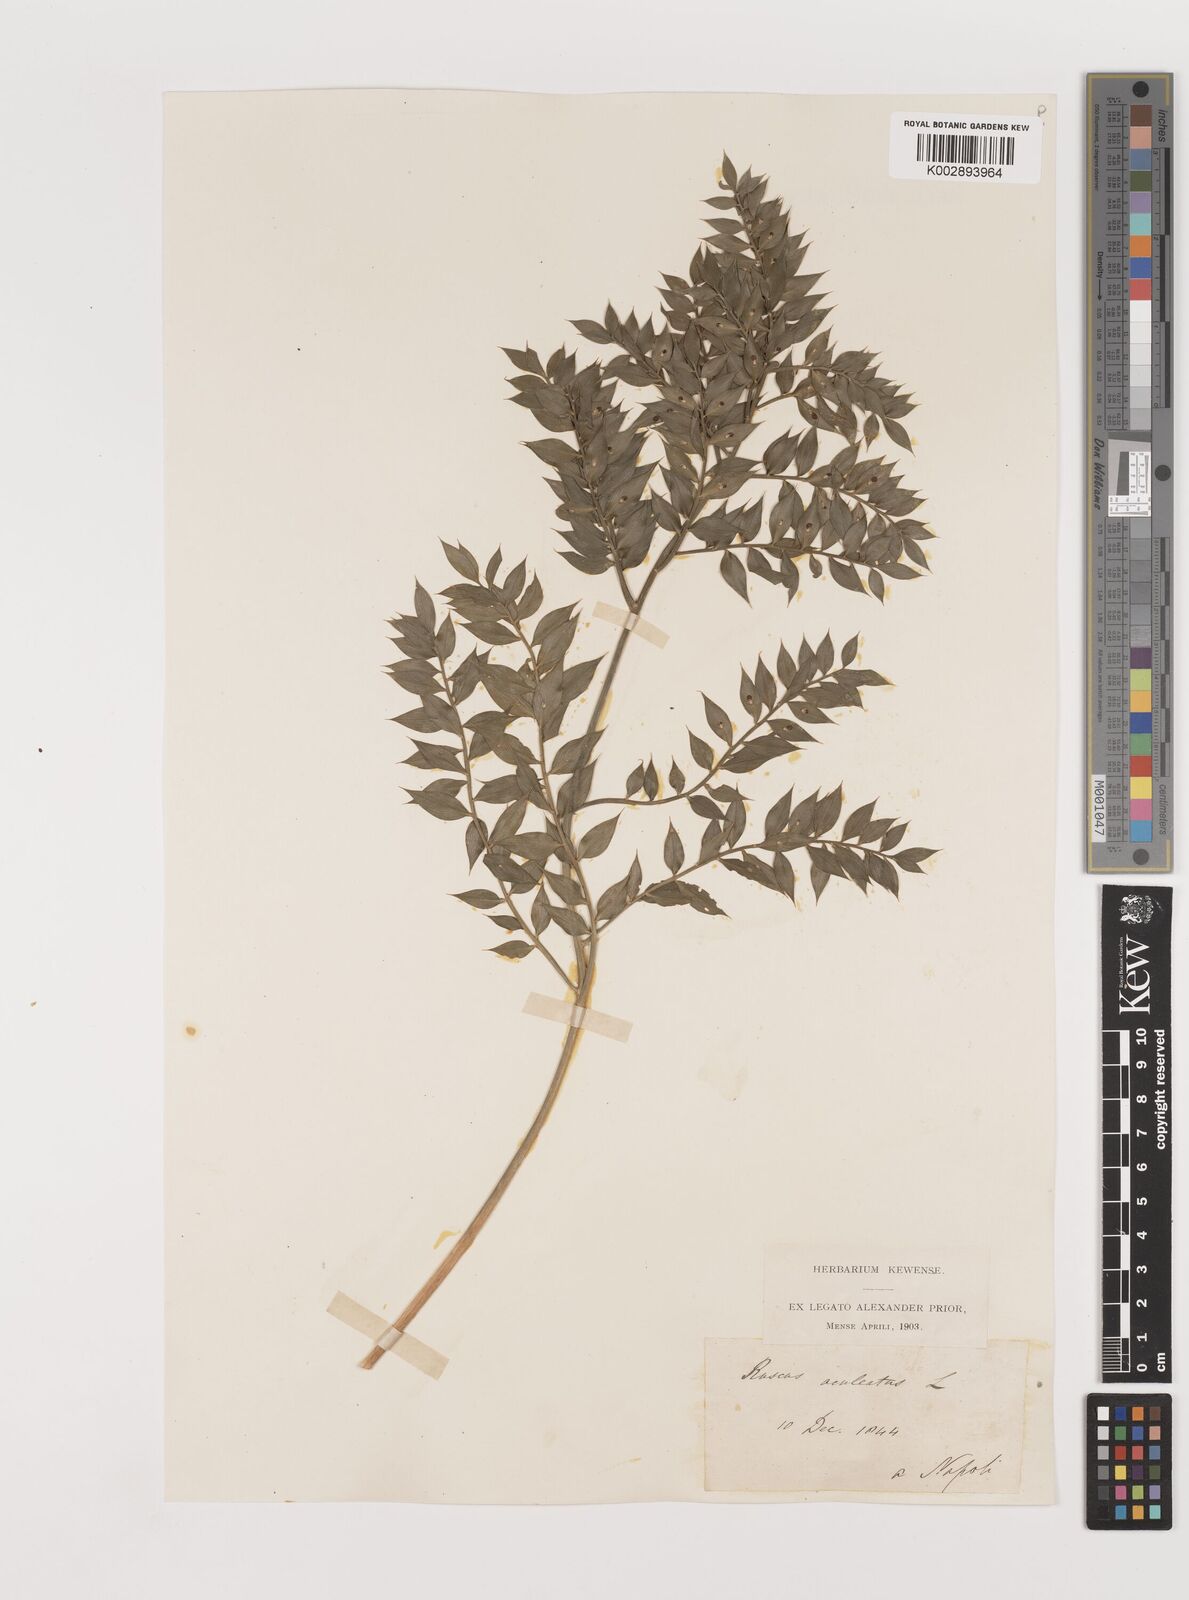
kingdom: Plantae
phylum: Tracheophyta
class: Liliopsida
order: Asparagales
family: Asparagaceae
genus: Ruscus
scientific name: Ruscus
